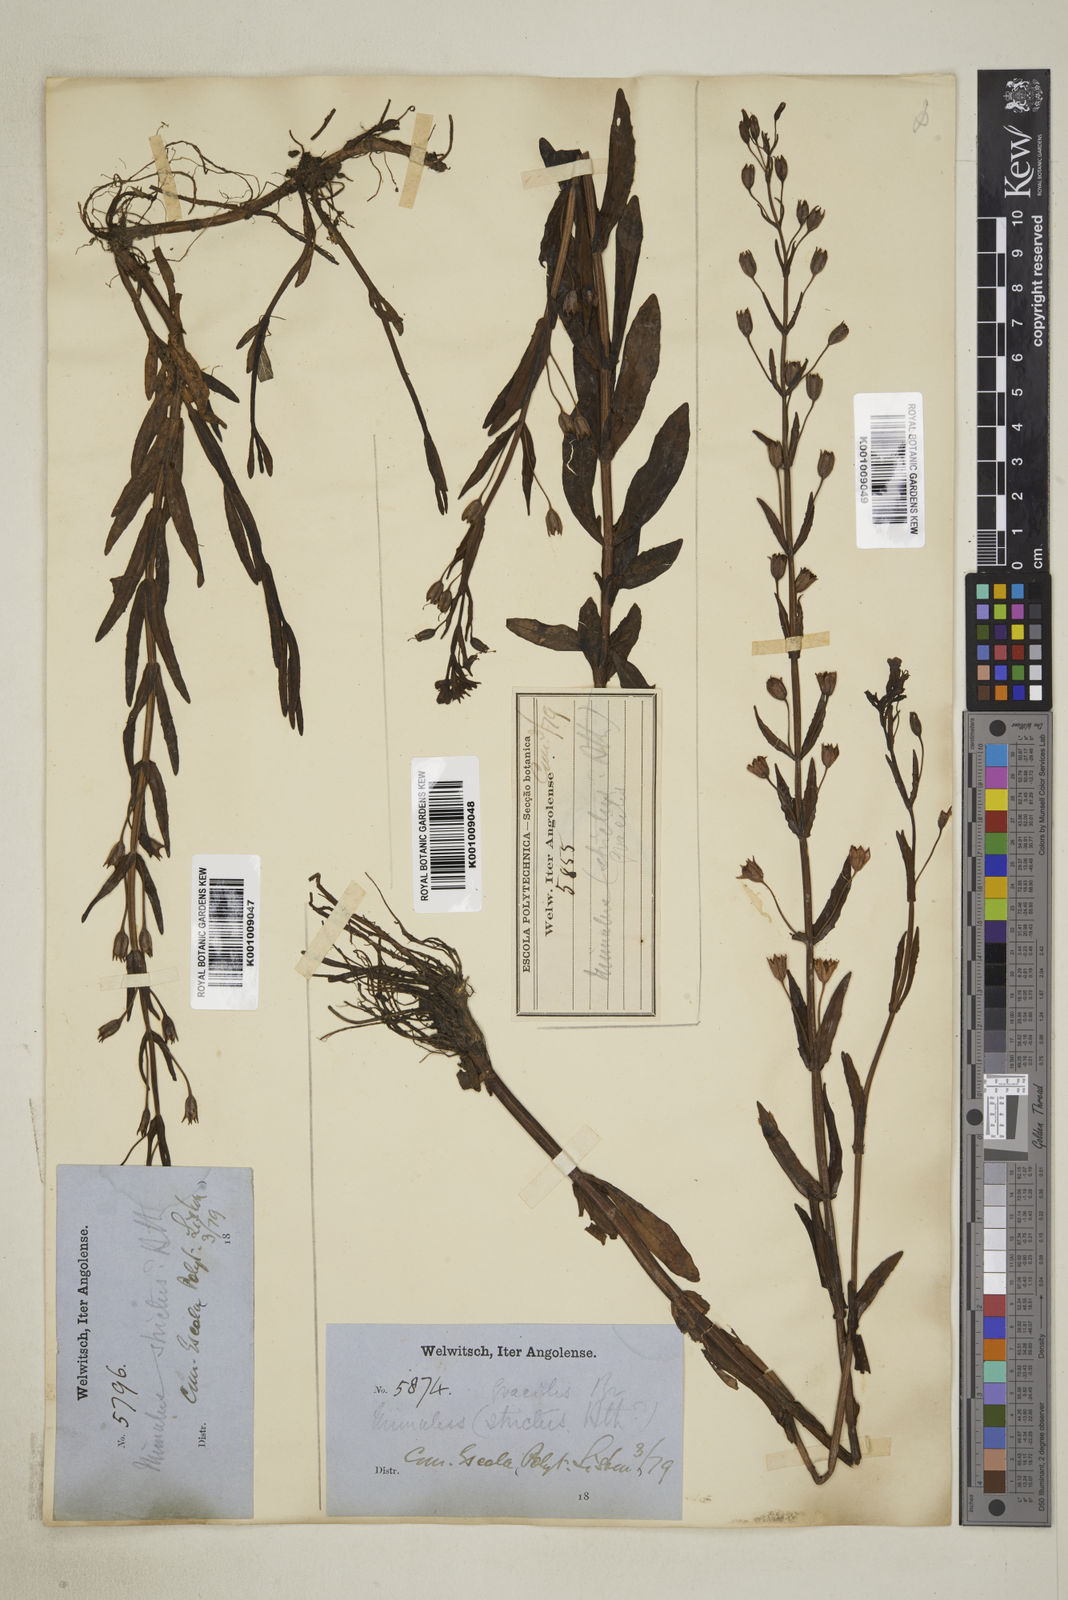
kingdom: Plantae
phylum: Tracheophyta
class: Magnoliopsida
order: Lamiales
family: Phrymaceae
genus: Mimulus
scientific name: Mimulus gracilis
